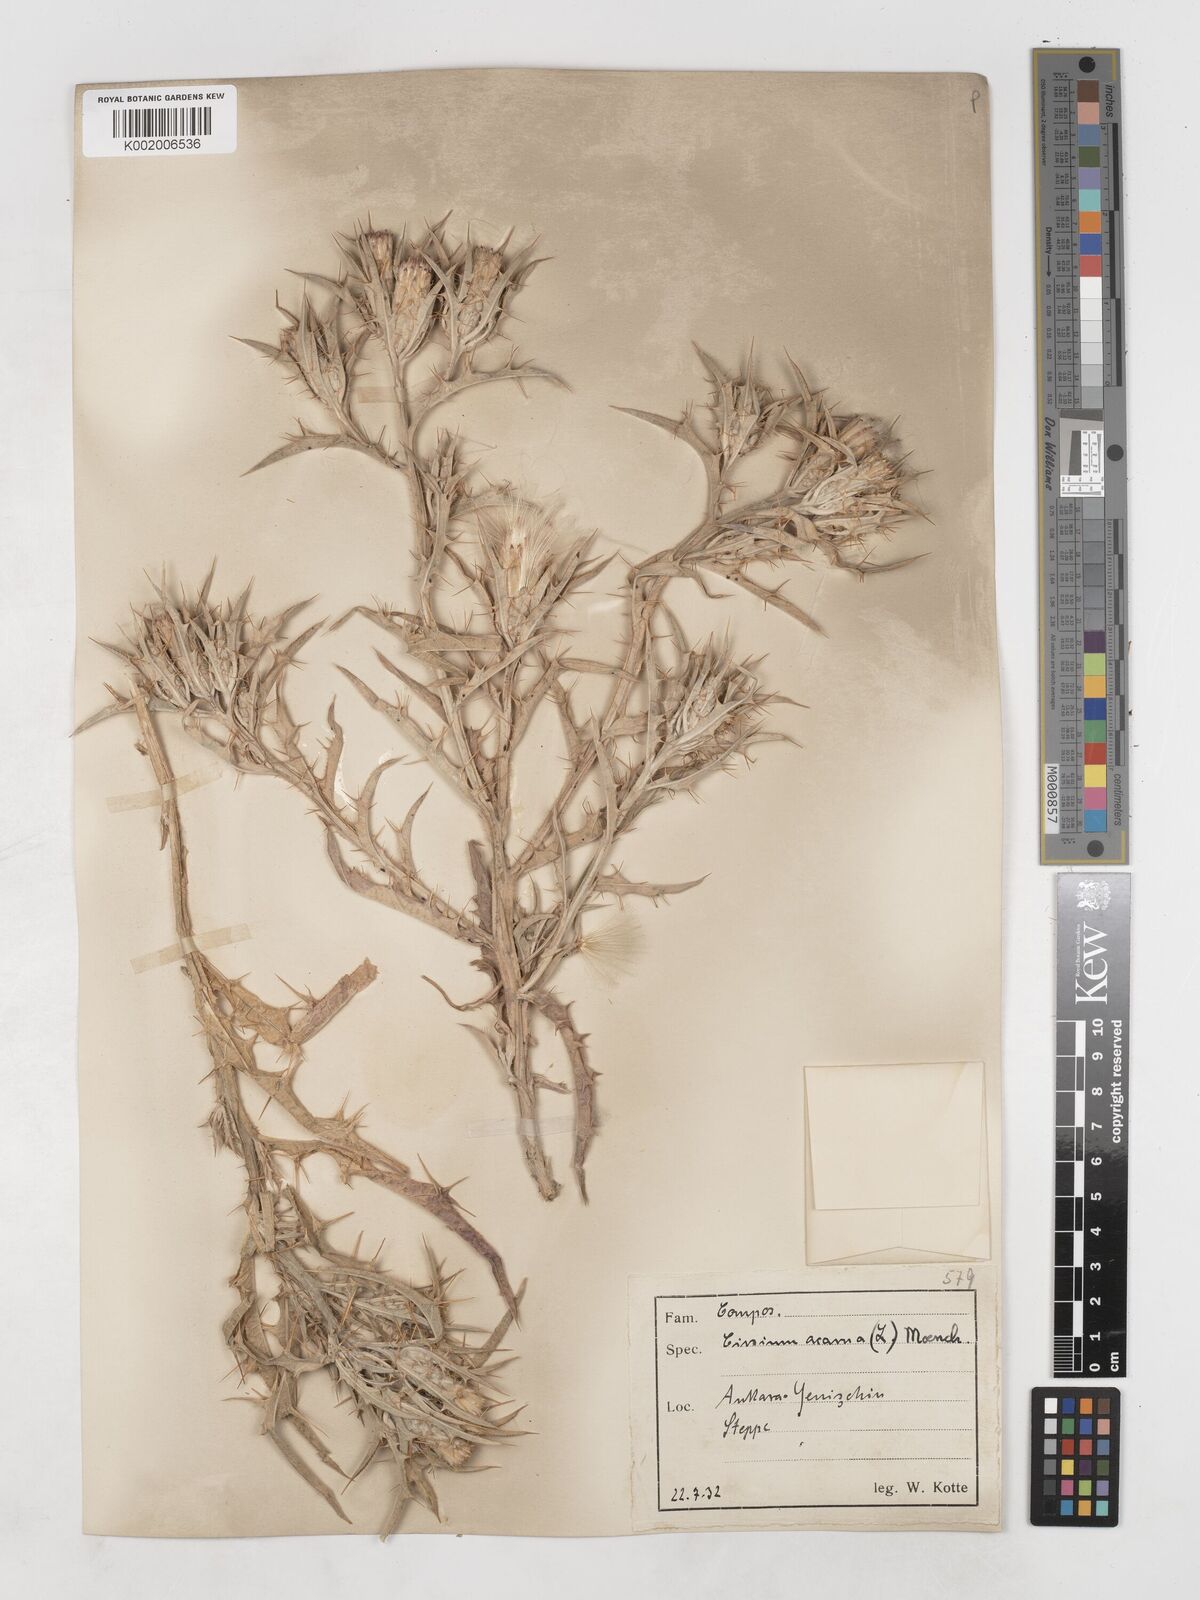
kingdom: Plantae
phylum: Tracheophyta
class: Magnoliopsida
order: Asterales
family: Asteraceae
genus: Picnomon
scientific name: Picnomon acarna
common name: Soldier thistle
